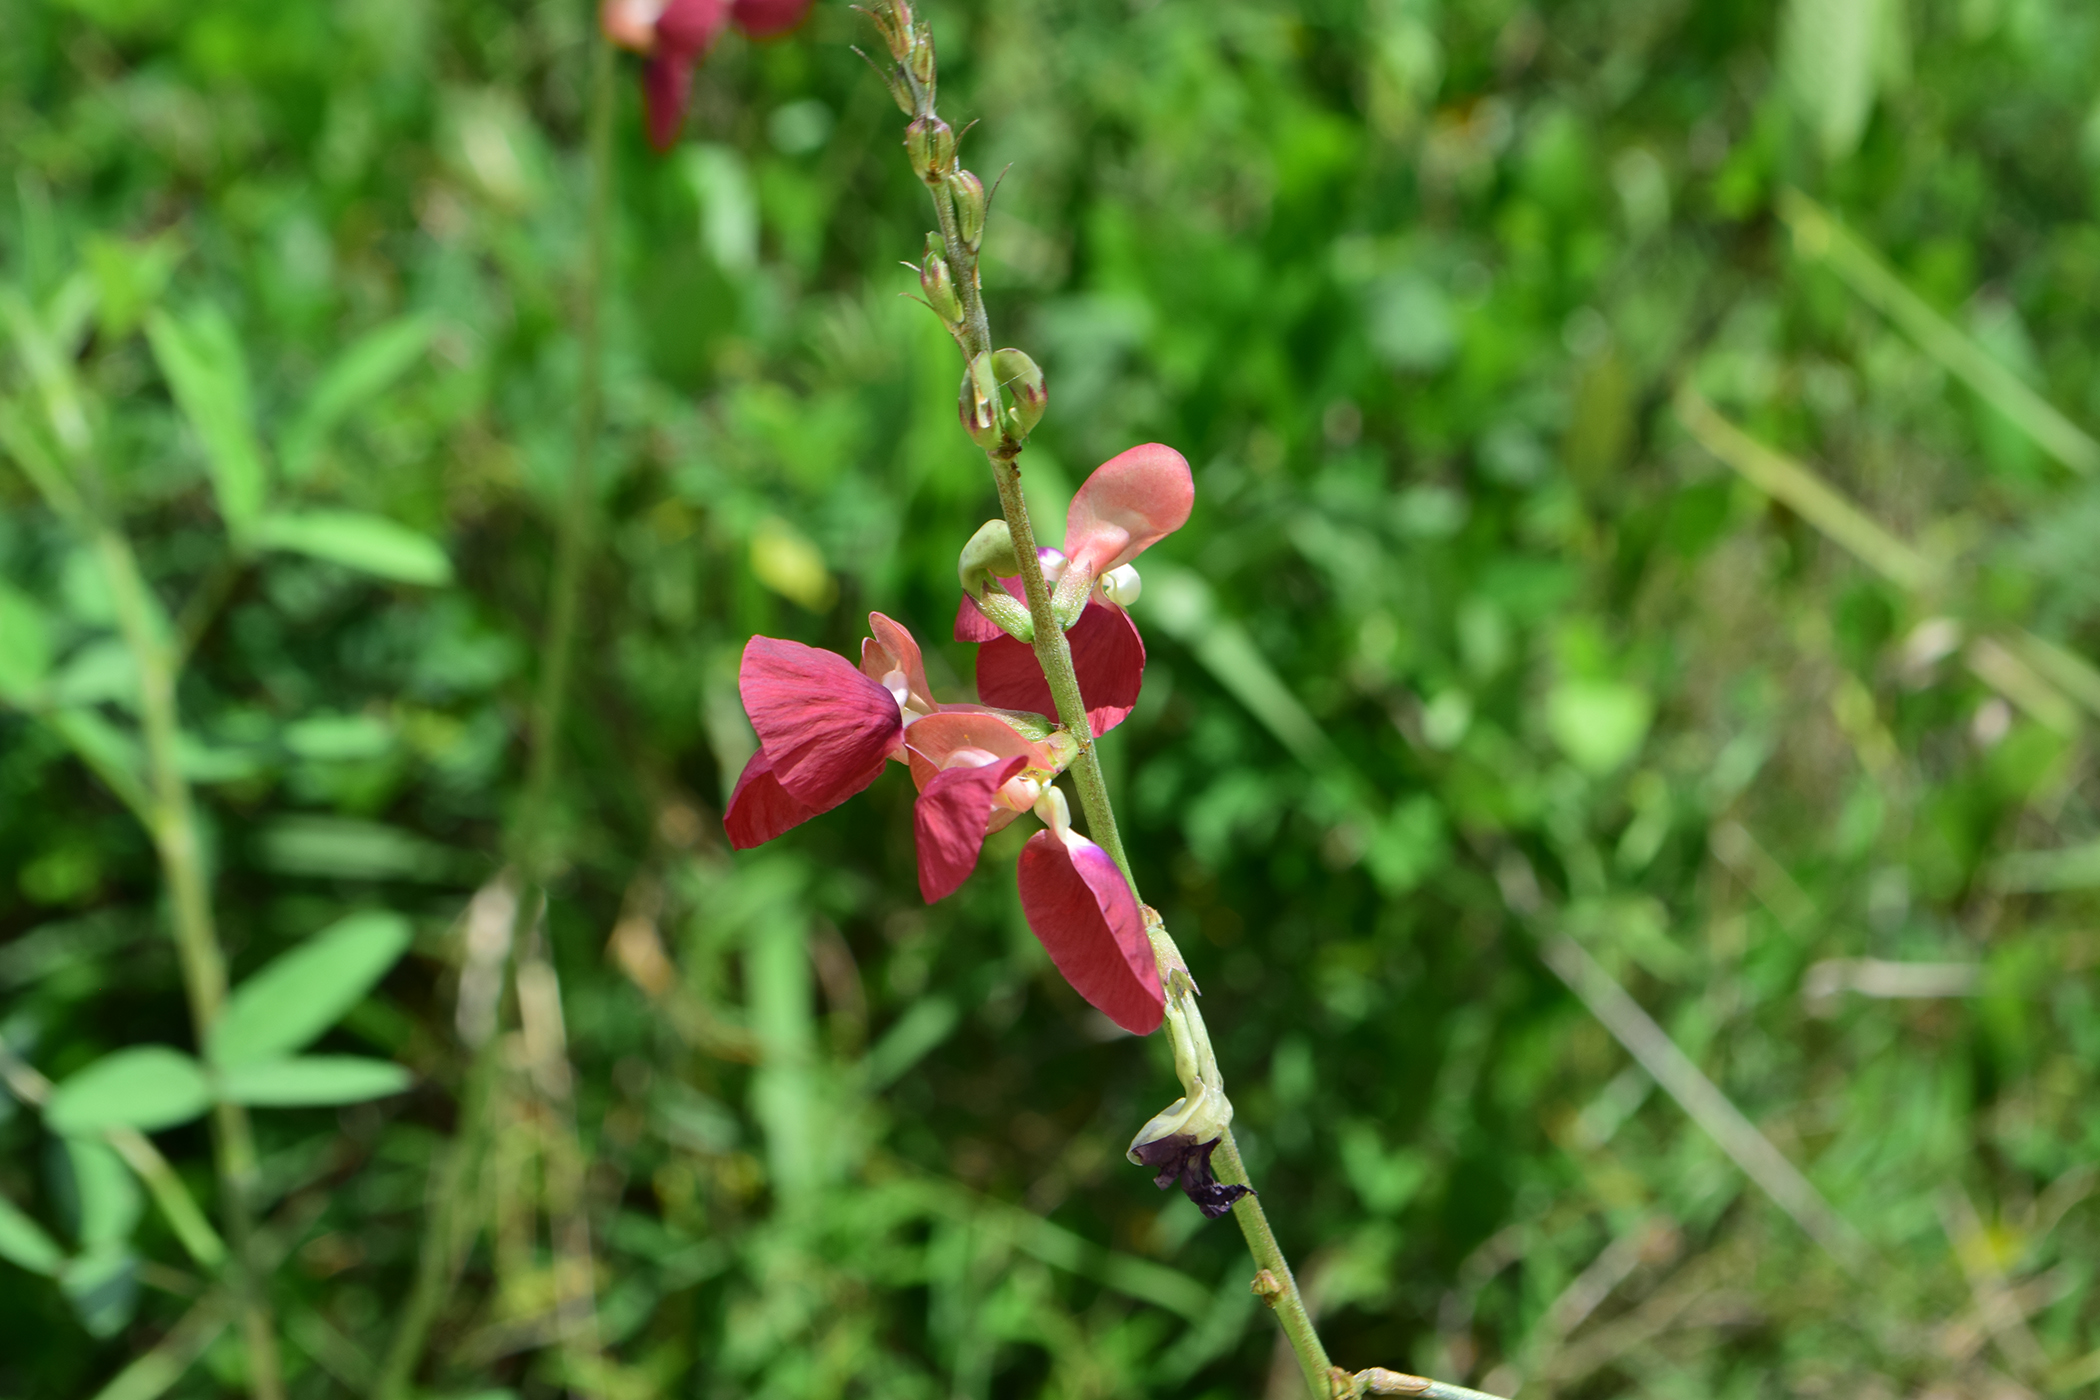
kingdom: Plantae
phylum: Tracheophyta
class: Magnoliopsida
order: Fabales
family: Fabaceae
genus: Macroptilium
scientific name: Macroptilium lathyroides
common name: Wild bushbean
